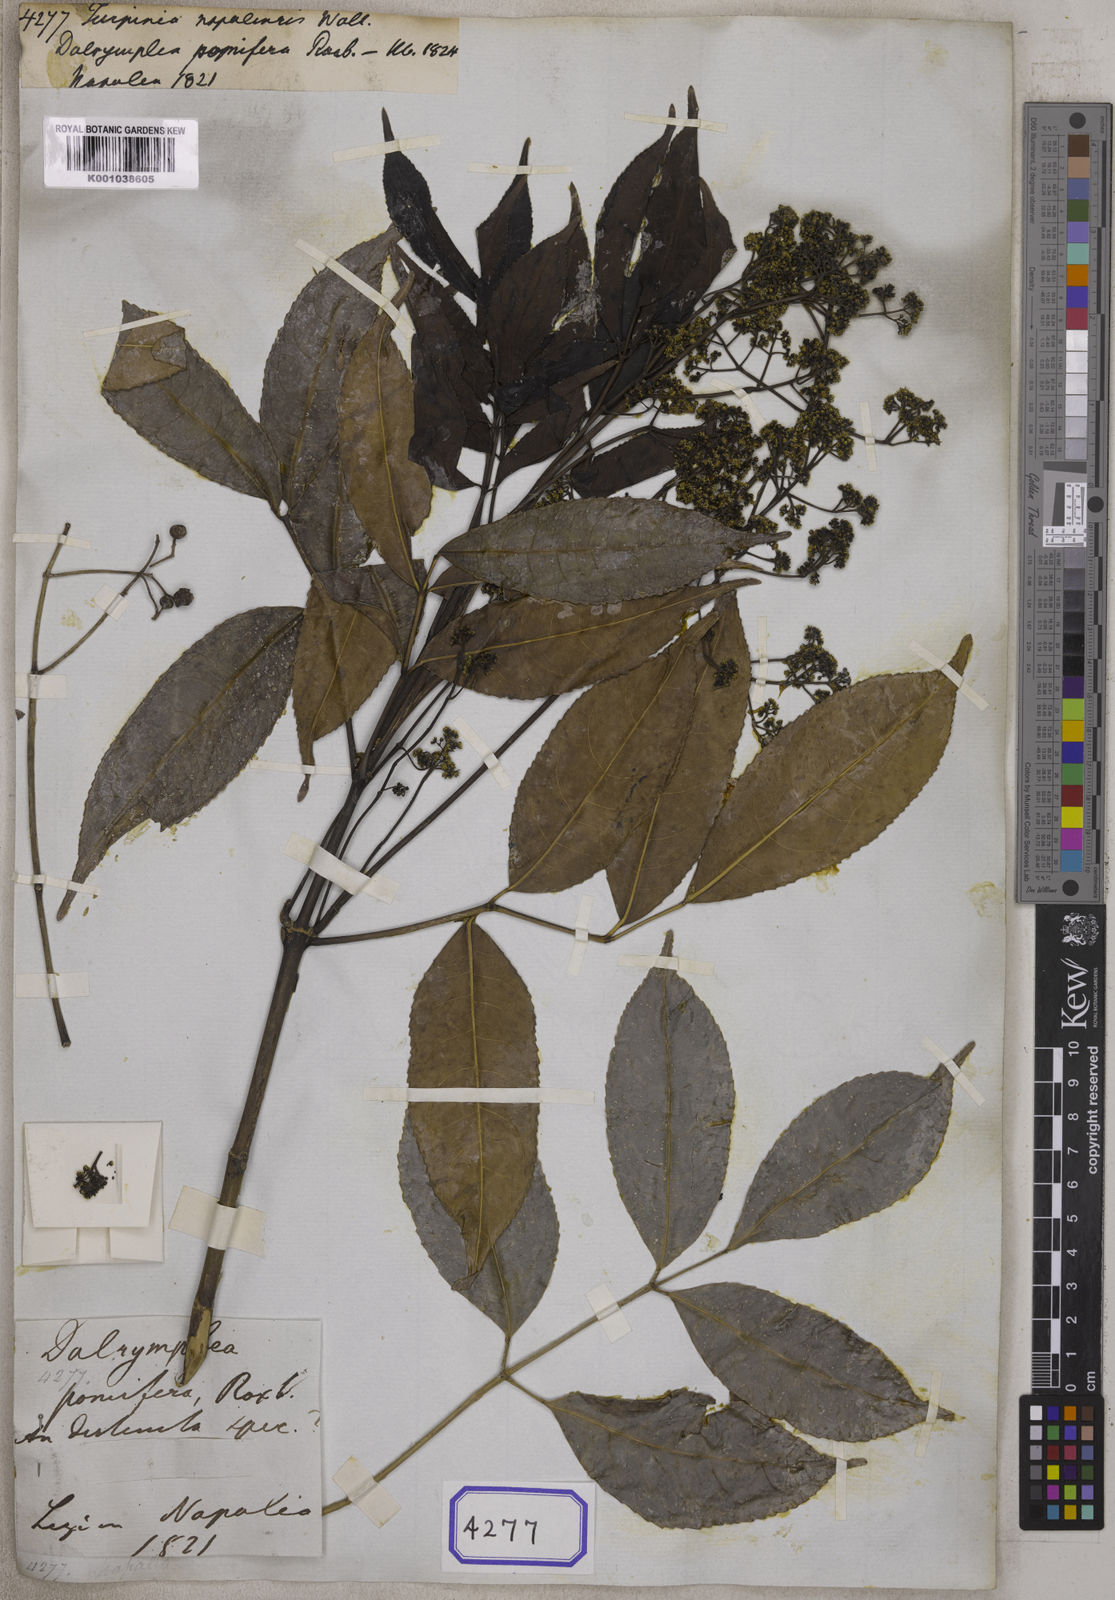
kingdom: Plantae
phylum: Tracheophyta
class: Magnoliopsida
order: Crossosomatales
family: Staphyleaceae
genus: Turpinia
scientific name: Turpinia
